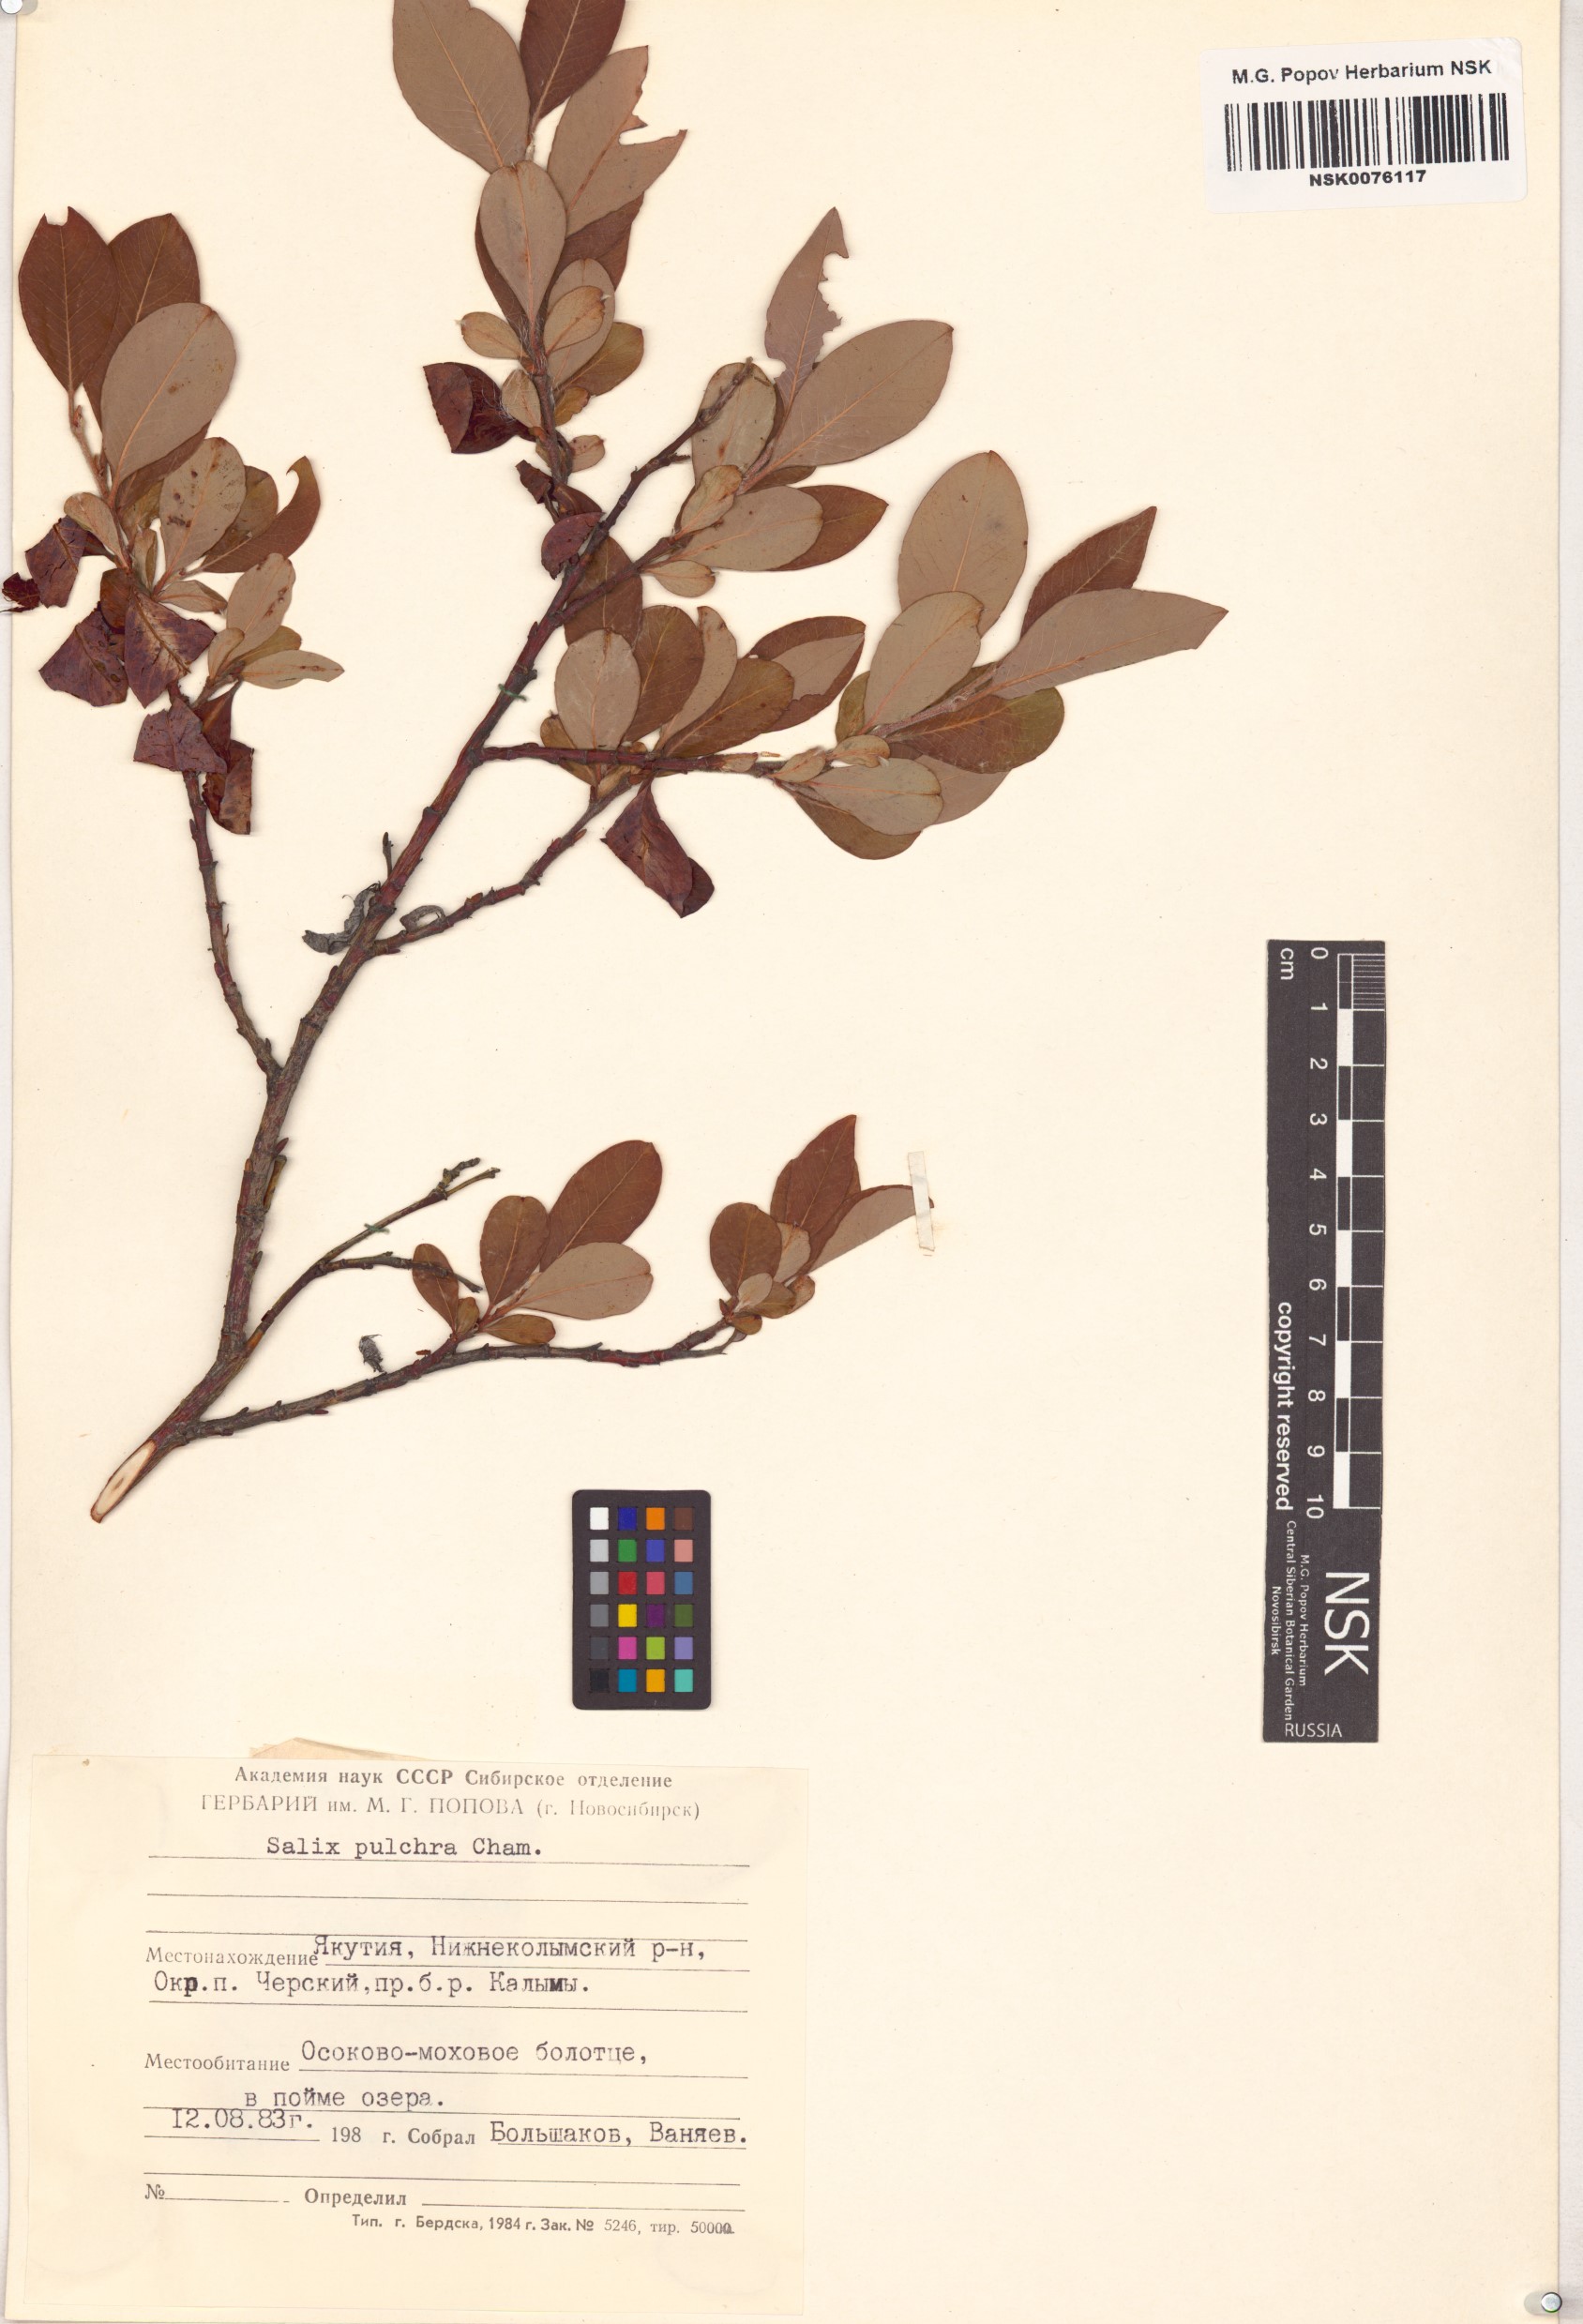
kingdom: Plantae
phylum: Tracheophyta
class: Magnoliopsida
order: Malpighiales
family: Salicaceae
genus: Salix
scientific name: Salix pulchra
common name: Diamond-leaved willow
